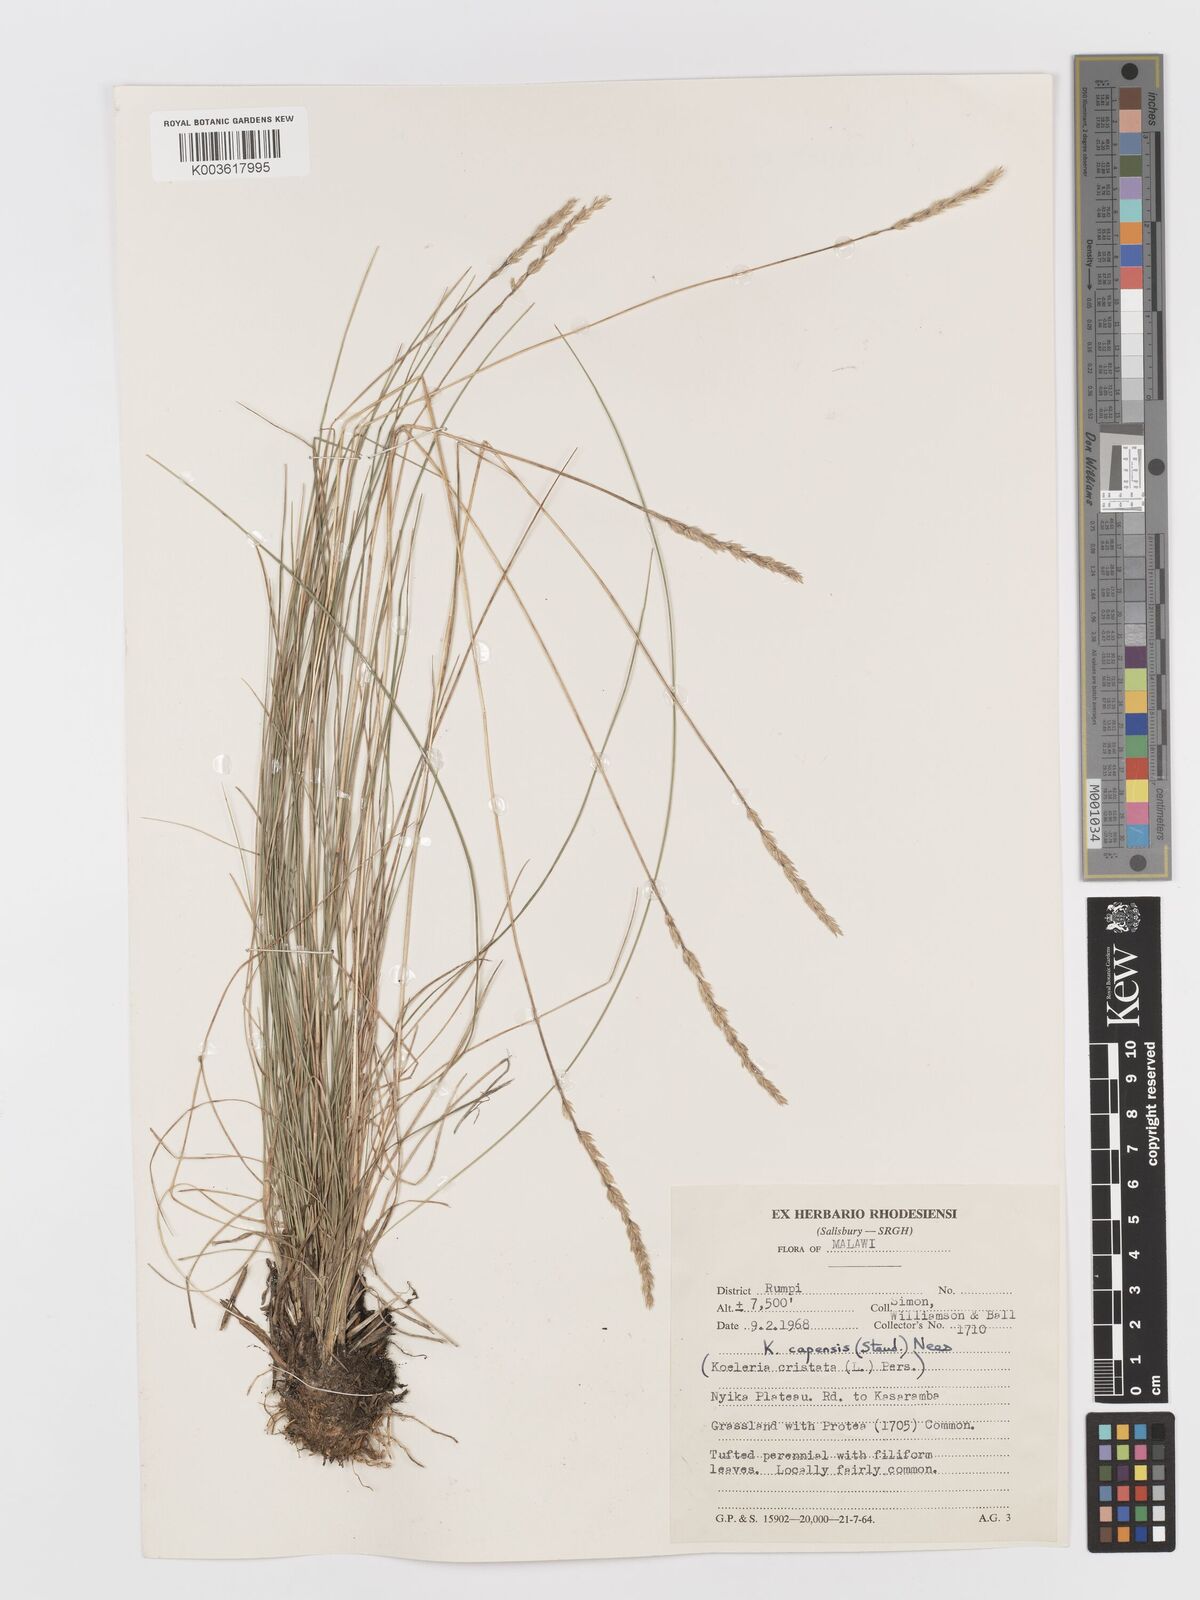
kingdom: Plantae
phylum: Tracheophyta
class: Liliopsida
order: Poales
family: Poaceae
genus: Koeleria
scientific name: Koeleria capensis
